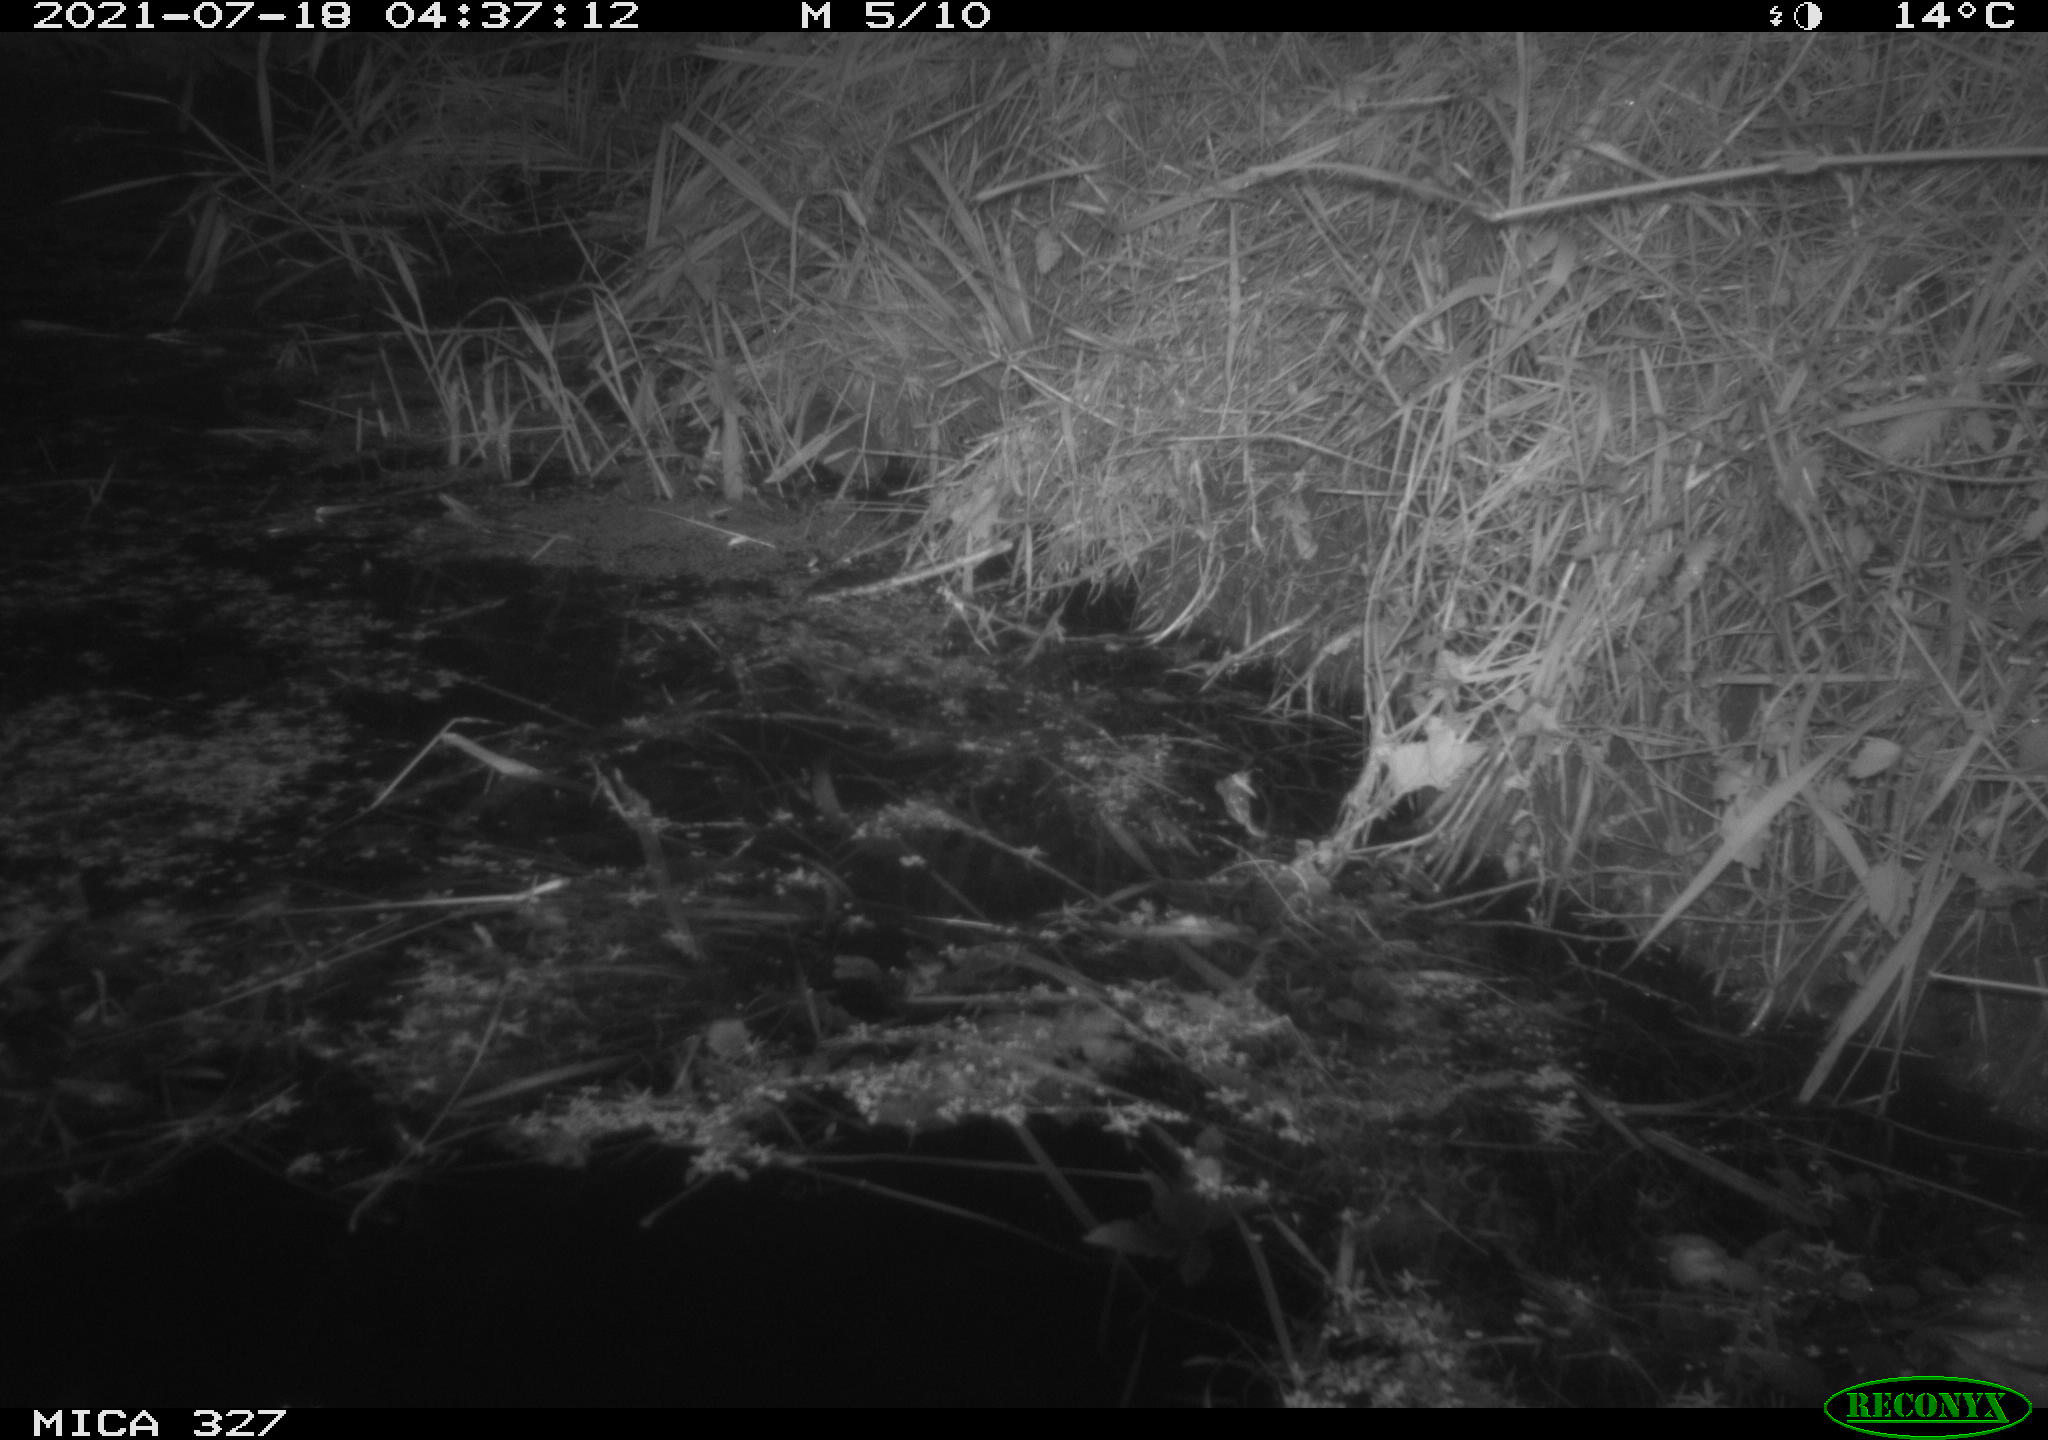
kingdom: Animalia
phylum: Chordata
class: Mammalia
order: Rodentia
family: Muridae
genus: Rattus
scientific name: Rattus norvegicus
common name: Brown rat
